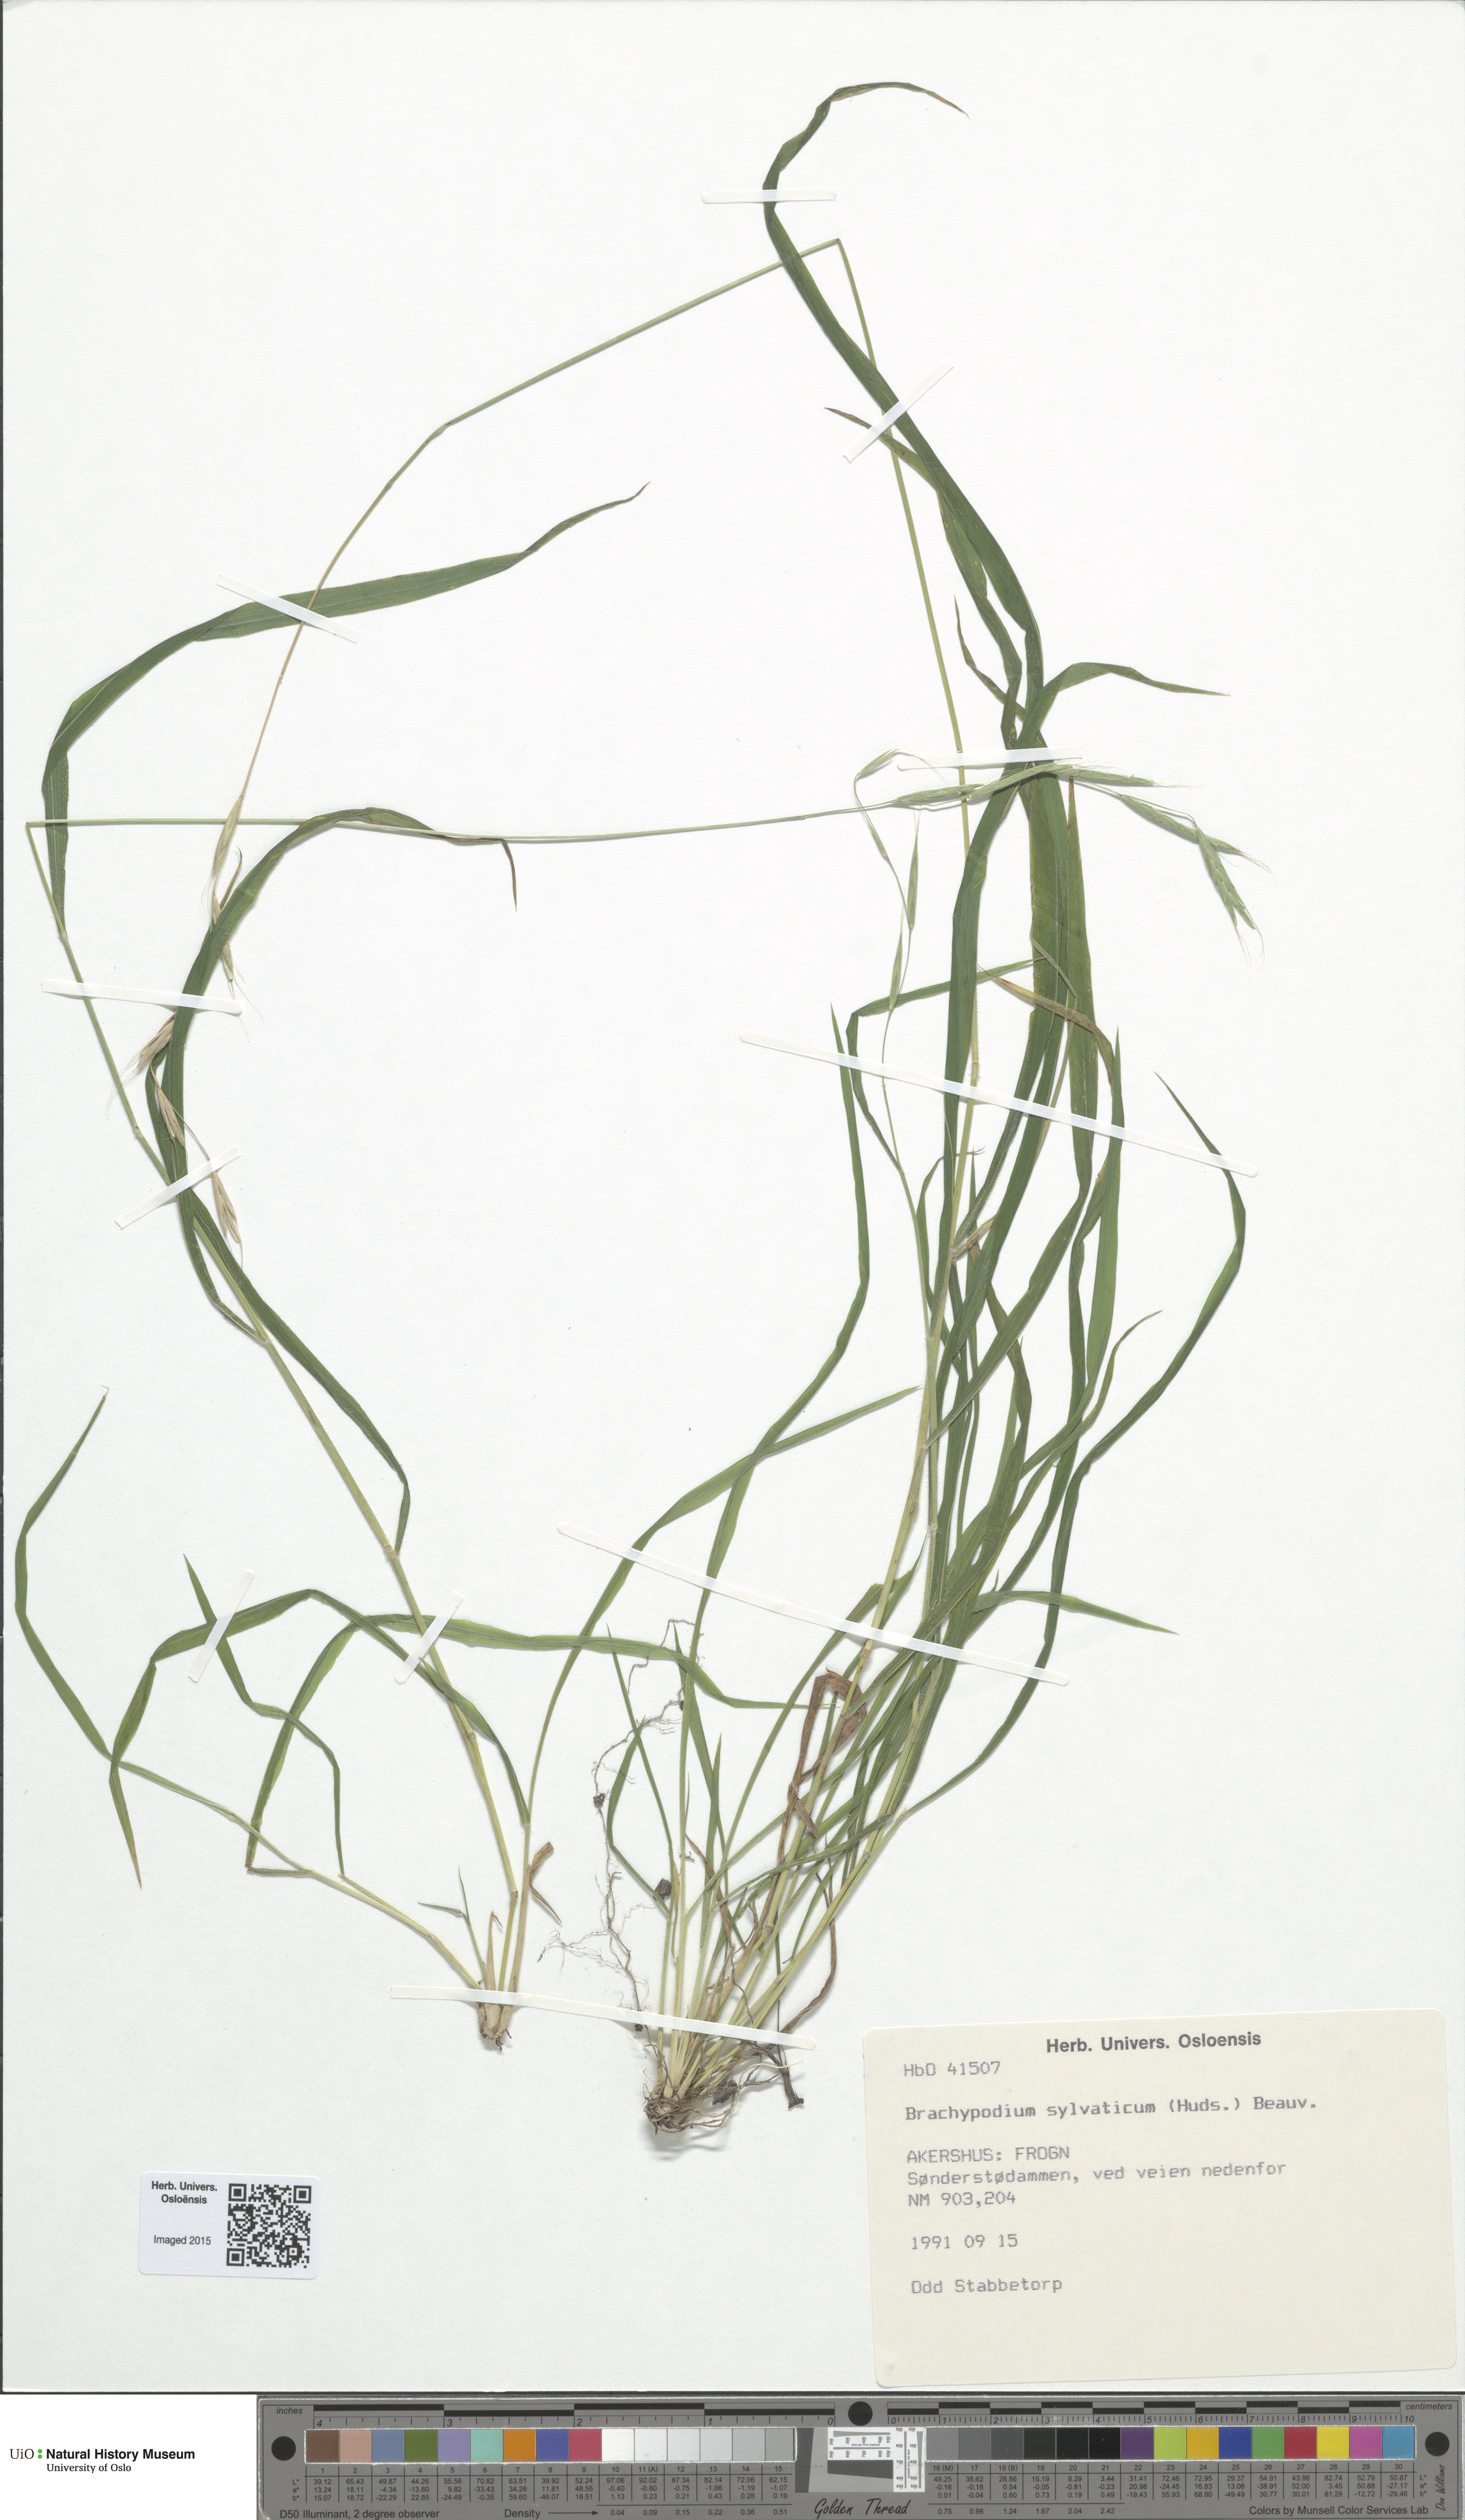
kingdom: Plantae
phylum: Tracheophyta
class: Liliopsida
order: Poales
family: Poaceae
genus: Brachypodium
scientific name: Brachypodium sylvaticum
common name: False-brome
